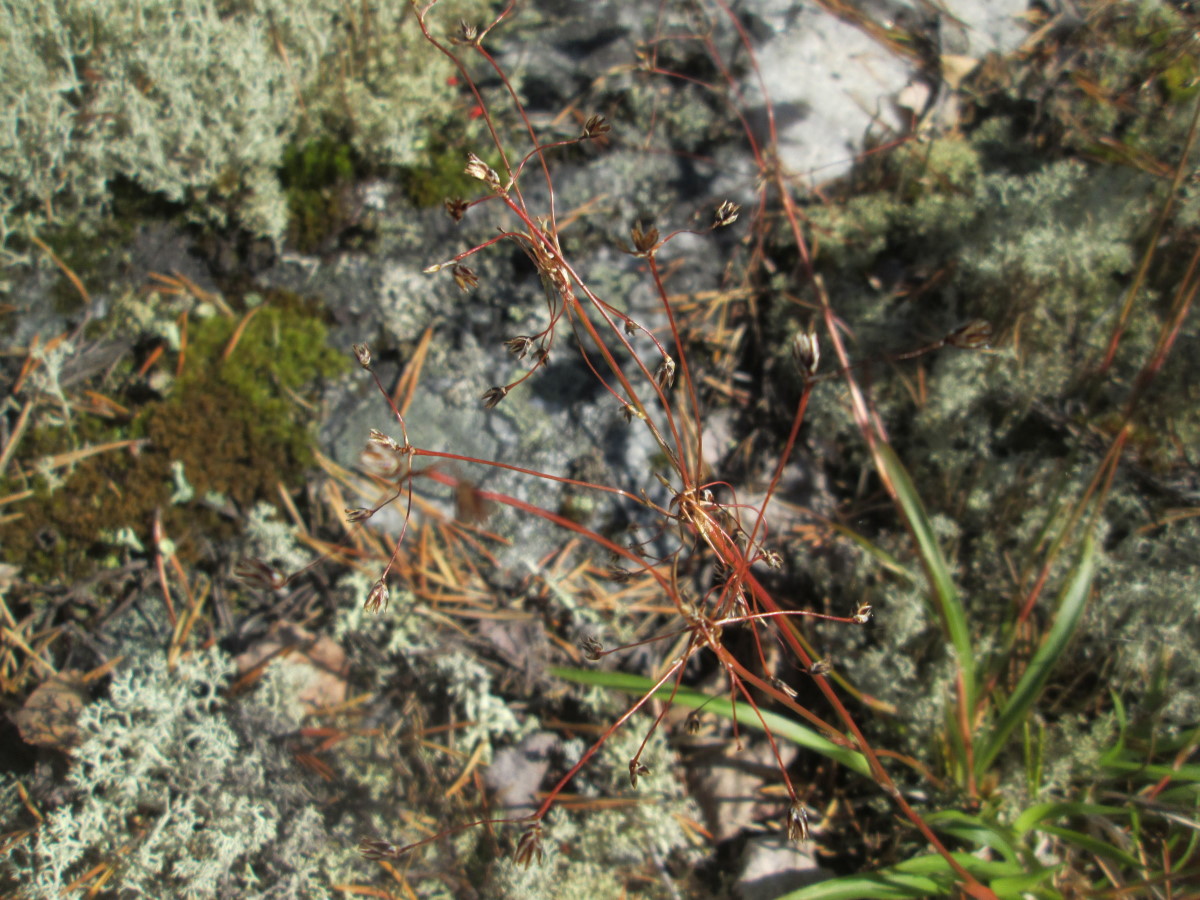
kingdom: Plantae
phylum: Tracheophyta
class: Liliopsida
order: Poales
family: Juncaceae
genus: Luzula
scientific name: Luzula pilosa
